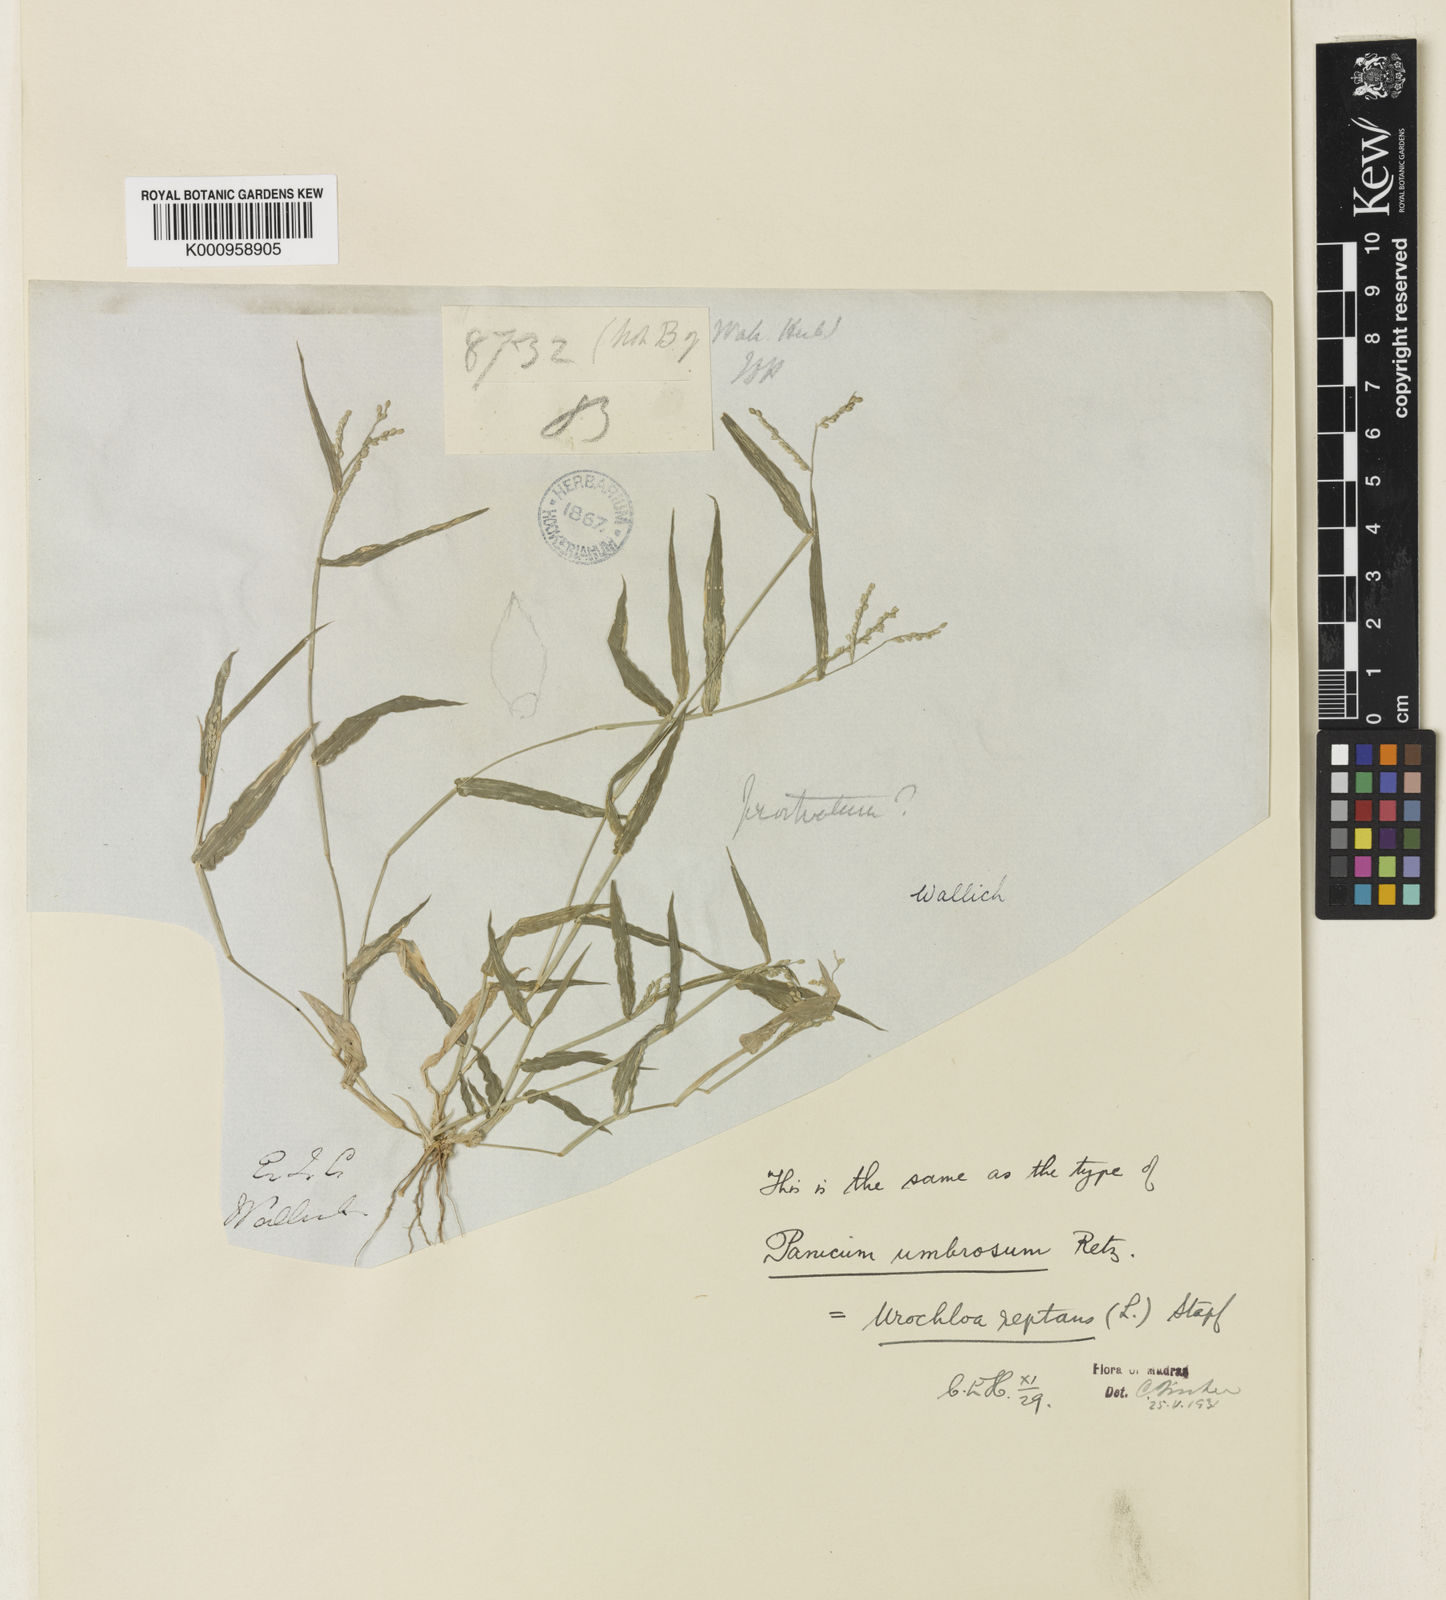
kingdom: Plantae
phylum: Tracheophyta
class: Liliopsida
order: Poales
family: Poaceae
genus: Urochloa
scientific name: Urochloa reptans
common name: Sprawling signalgrass
